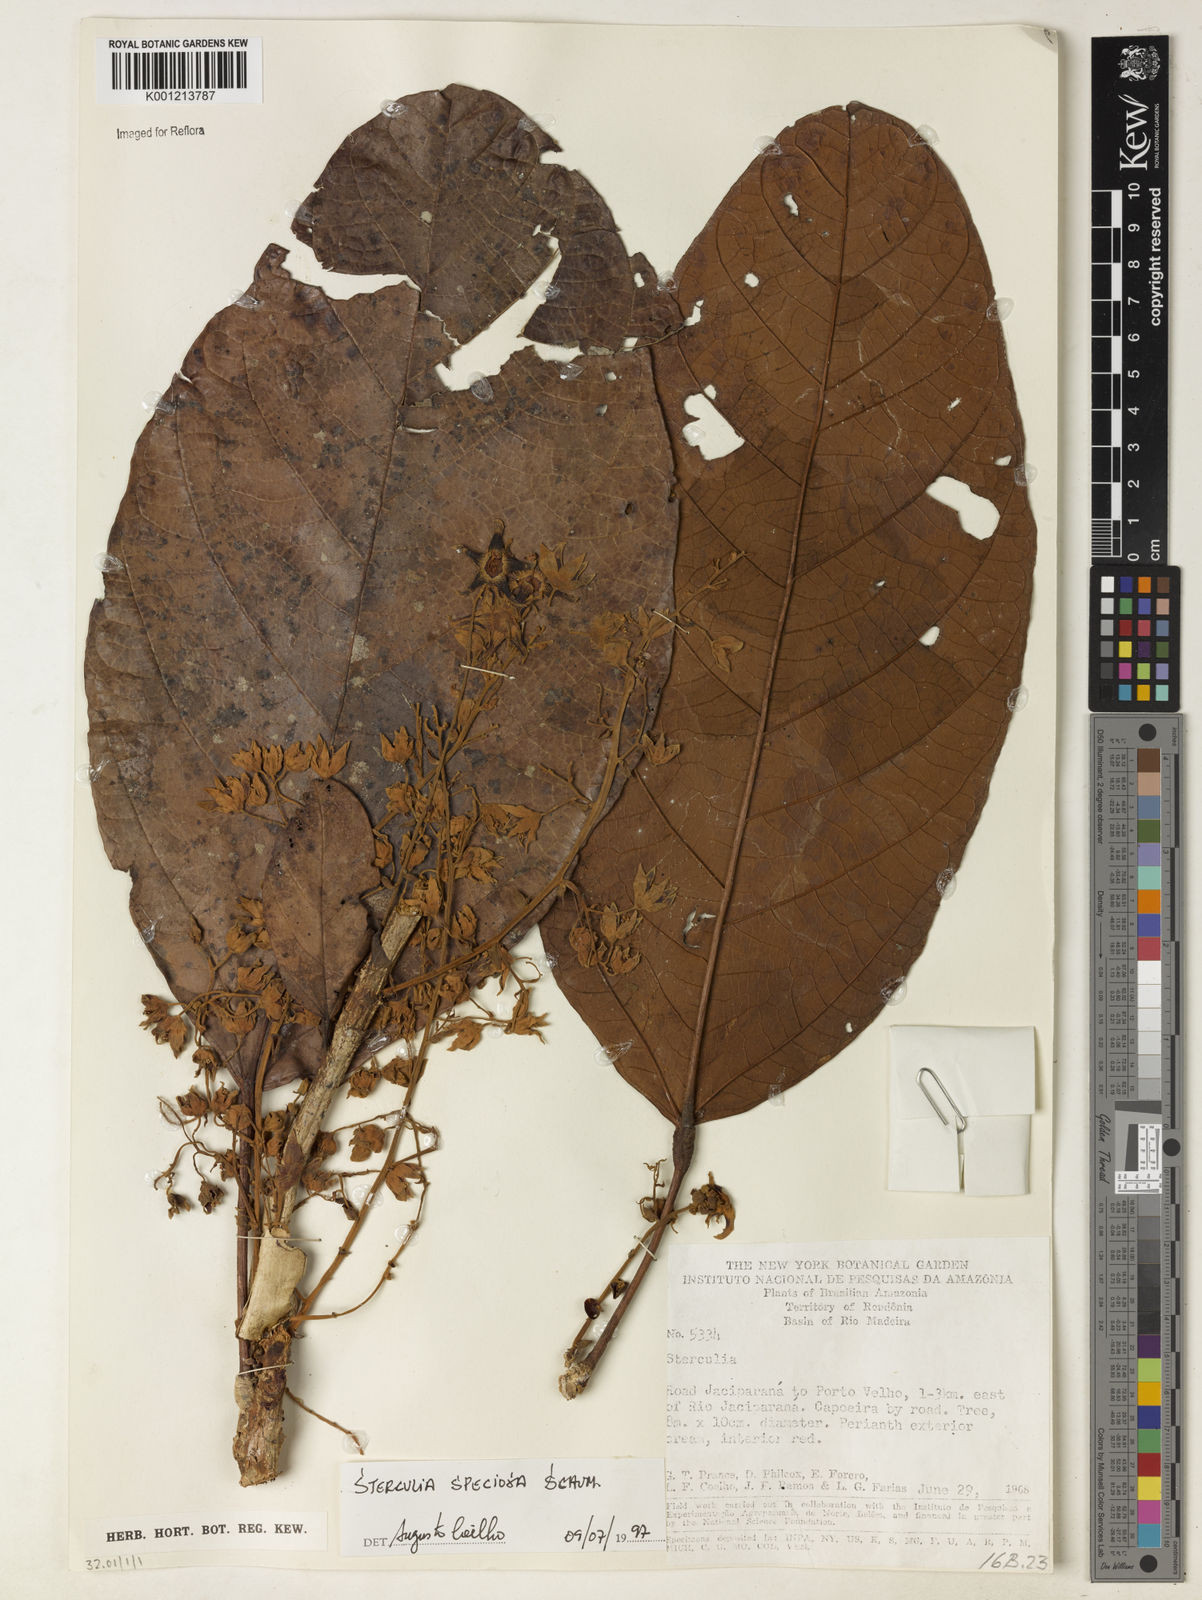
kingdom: Plantae
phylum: Tracheophyta
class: Magnoliopsida
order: Malvales
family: Malvaceae
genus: Sterculia
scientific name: Sterculia speciosa
